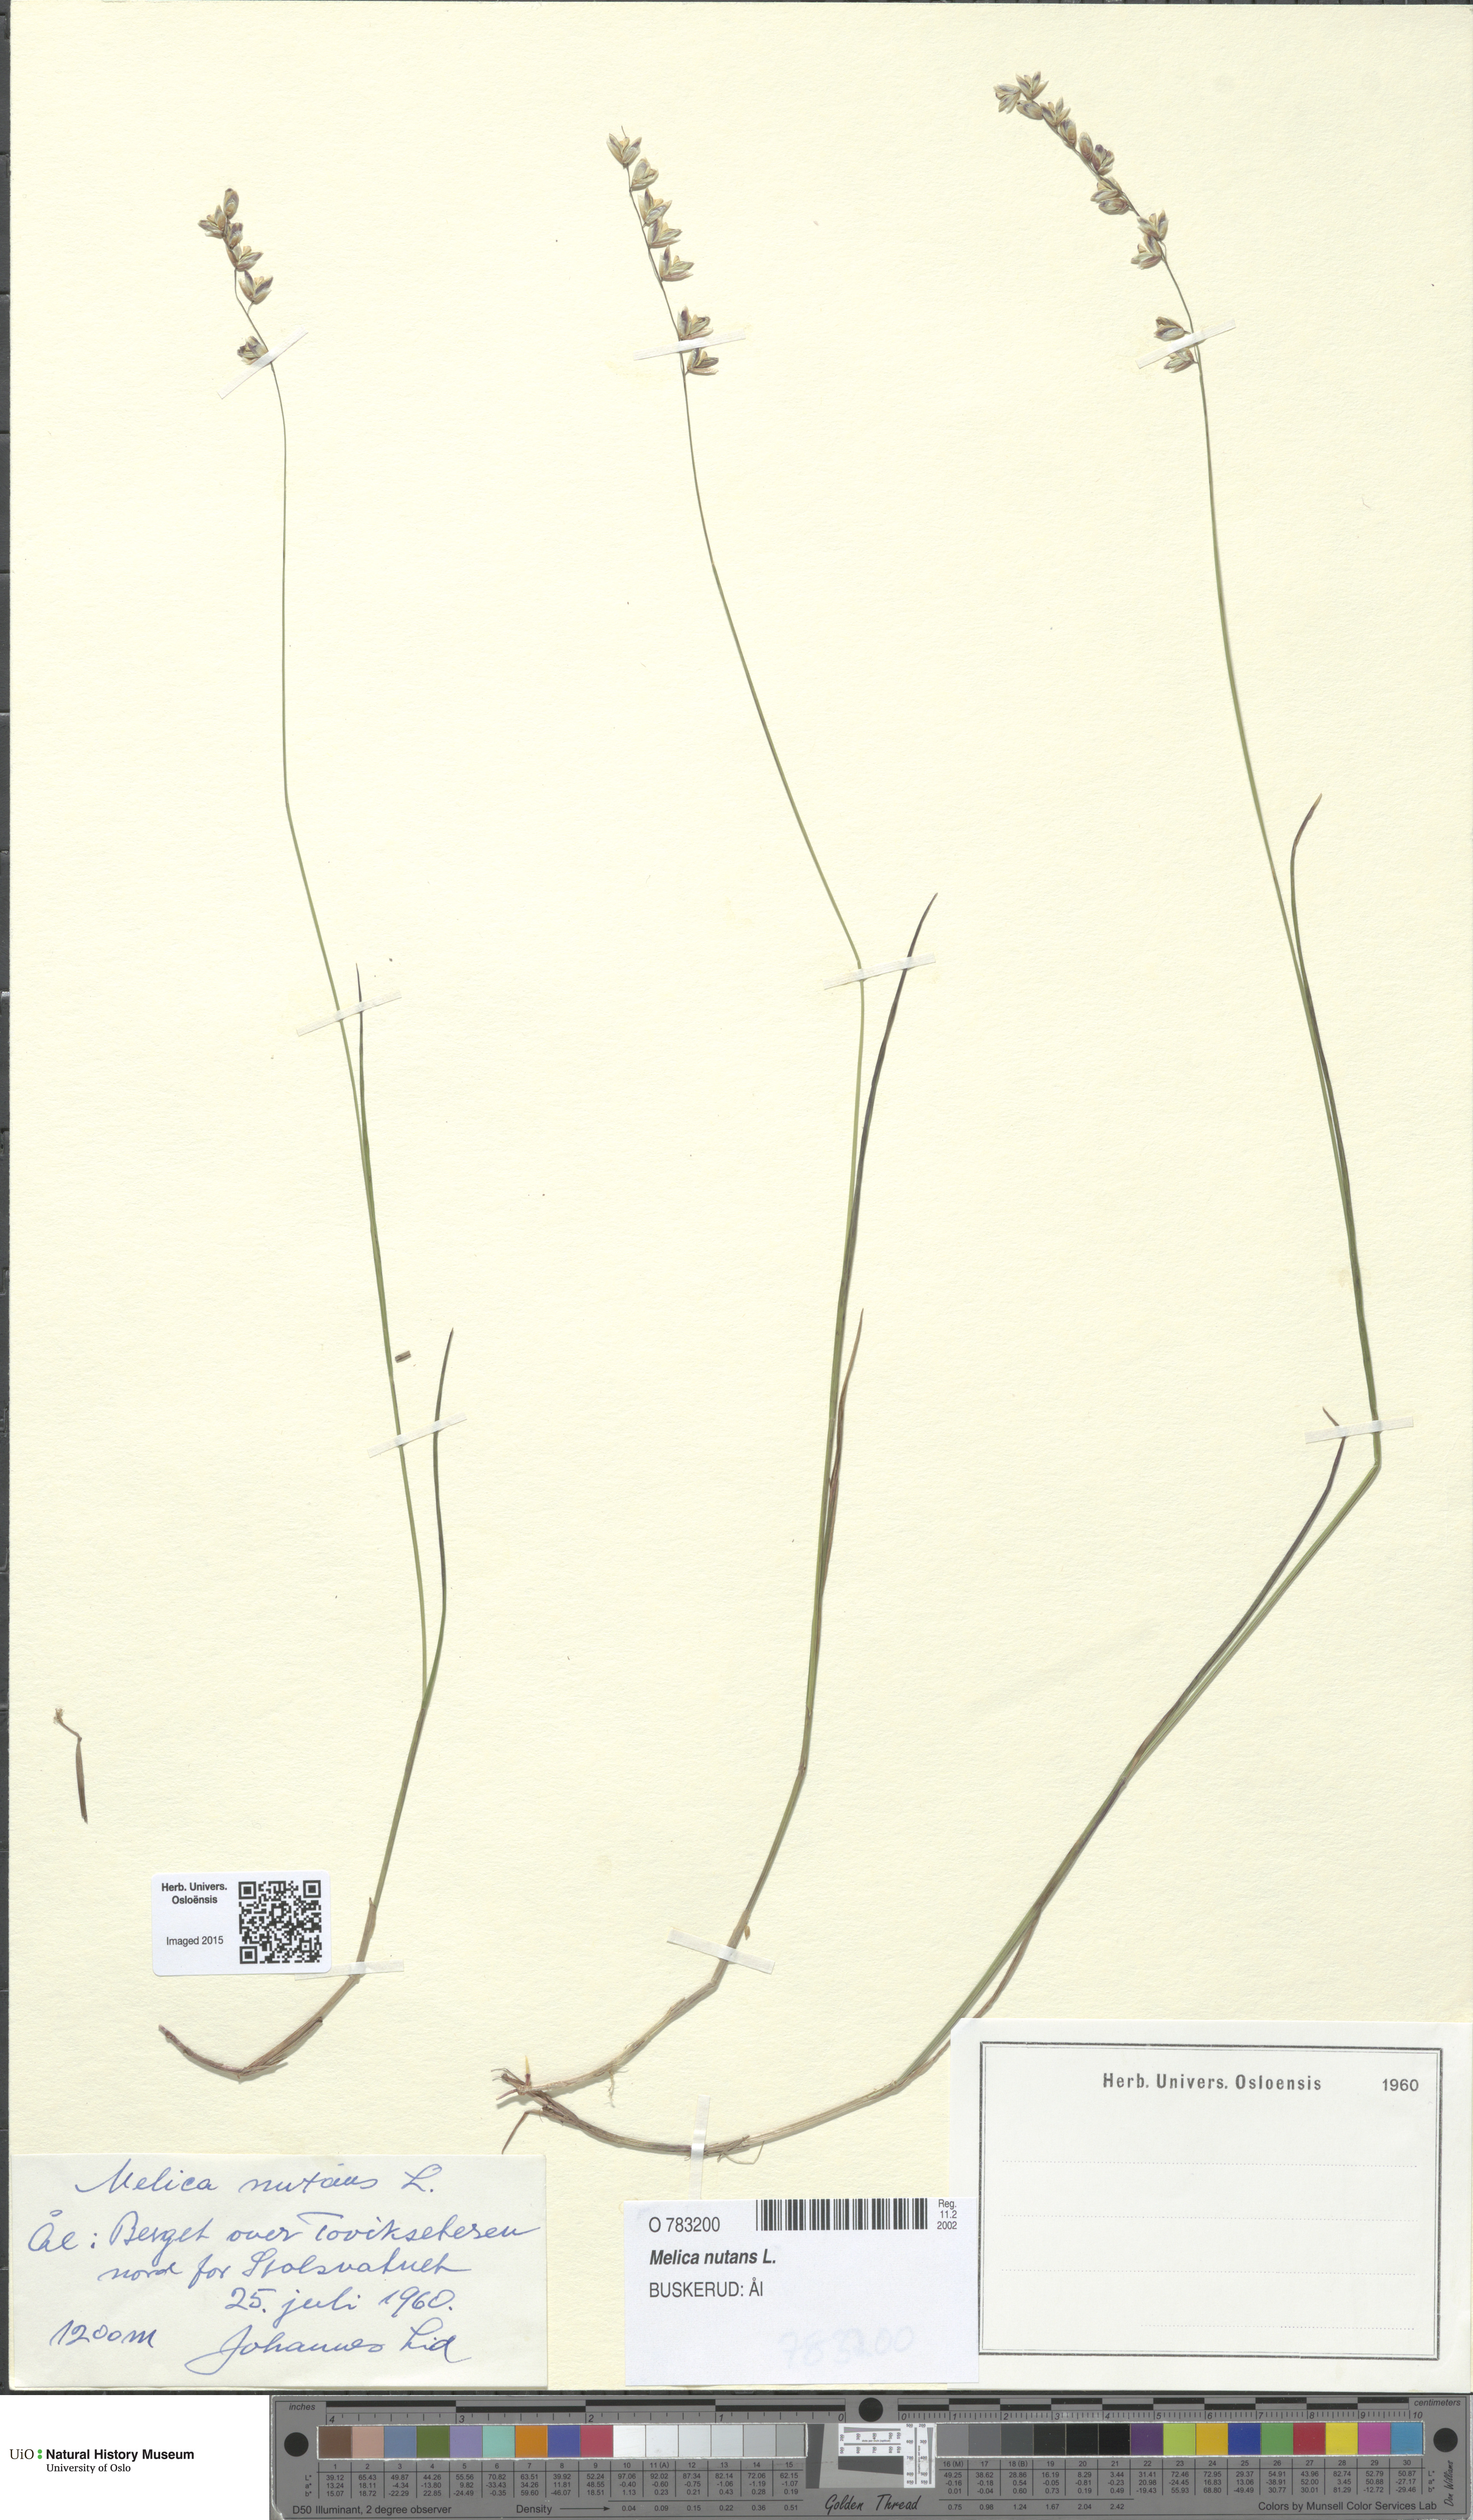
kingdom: Plantae
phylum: Tracheophyta
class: Liliopsida
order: Poales
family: Poaceae
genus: Melica
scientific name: Melica nutans
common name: Mountain melick
